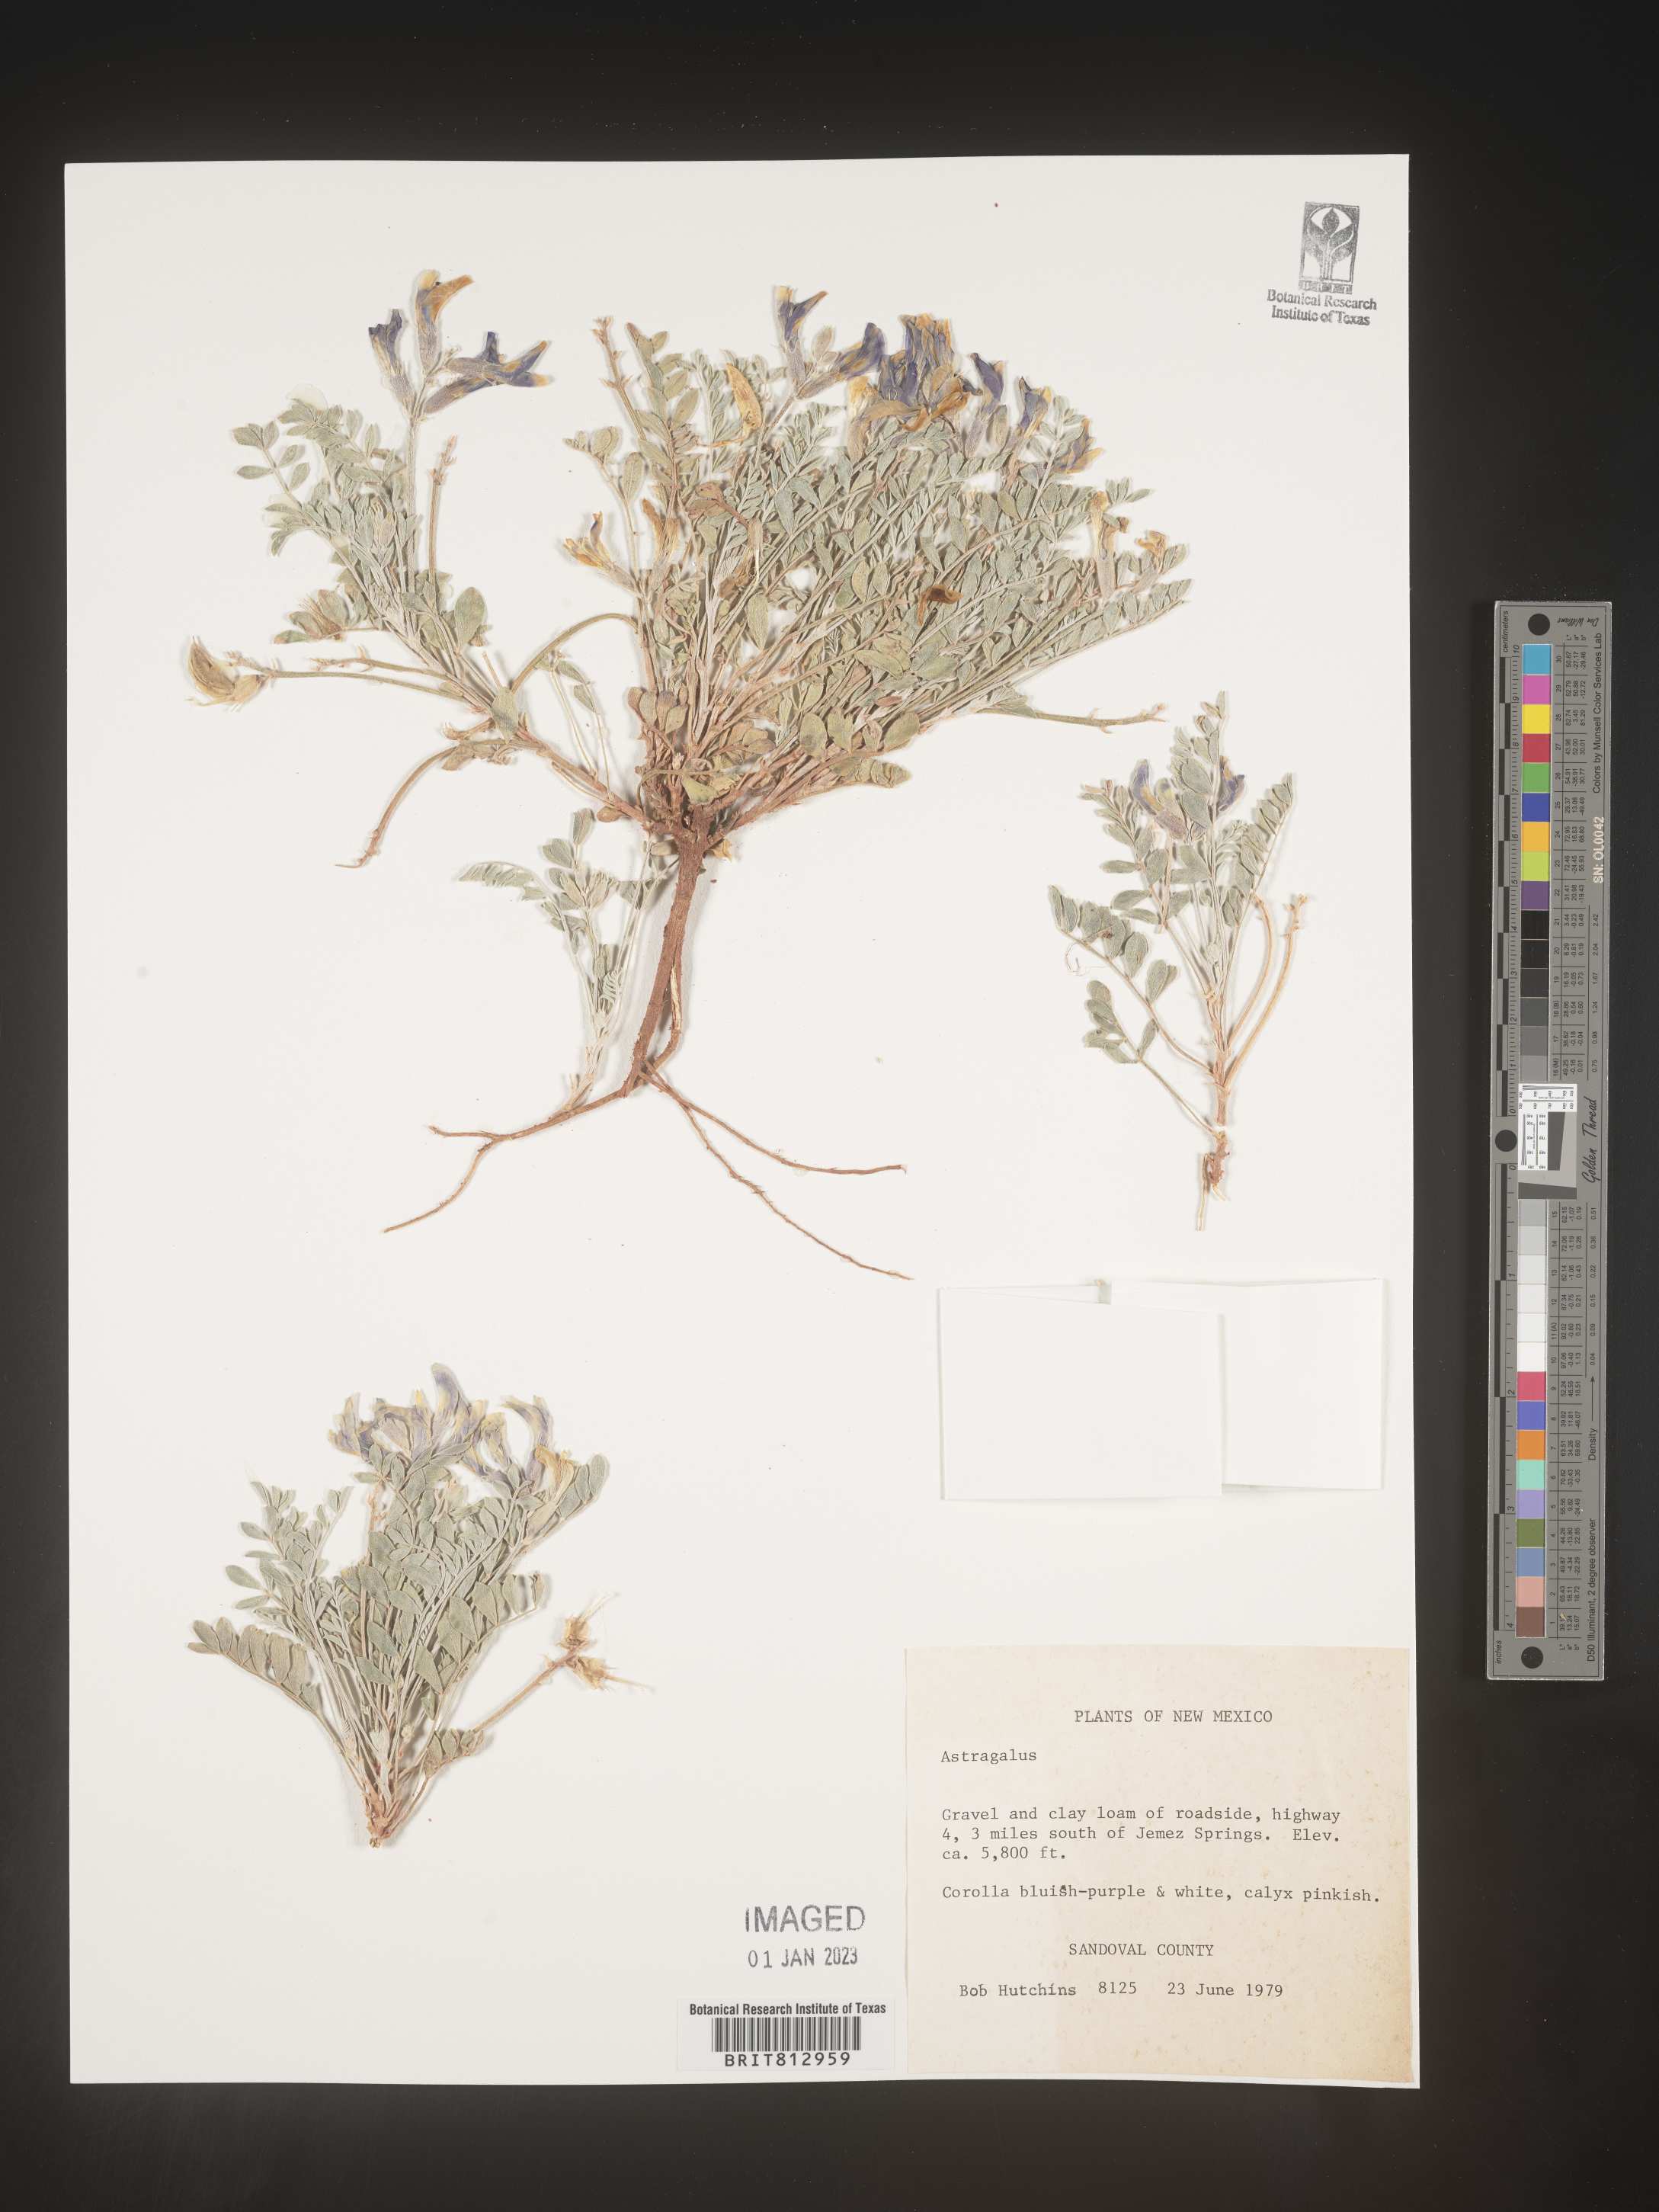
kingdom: Plantae
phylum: Tracheophyta
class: Magnoliopsida
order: Fabales
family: Fabaceae
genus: Astragalus
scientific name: Astragalus
